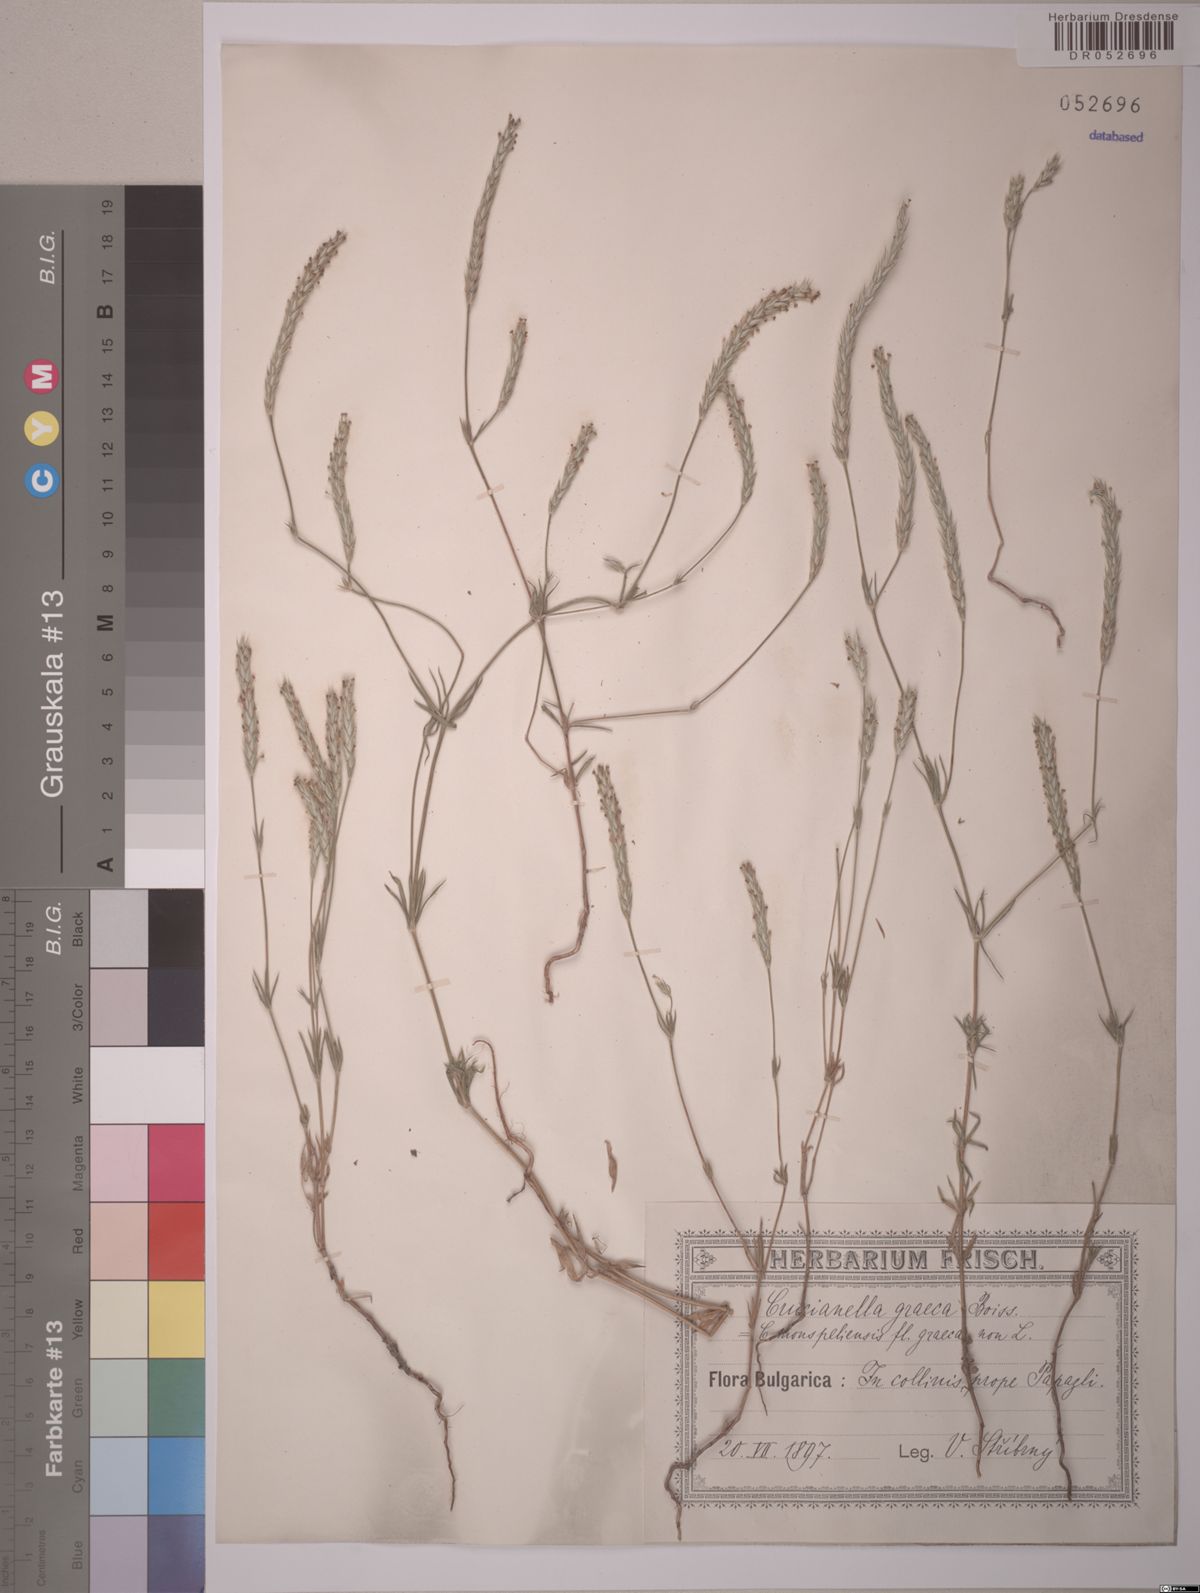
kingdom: Plantae
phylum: Tracheophyta
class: Magnoliopsida
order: Gentianales
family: Rubiaceae
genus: Crucianella
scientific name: Crucianella graeca
